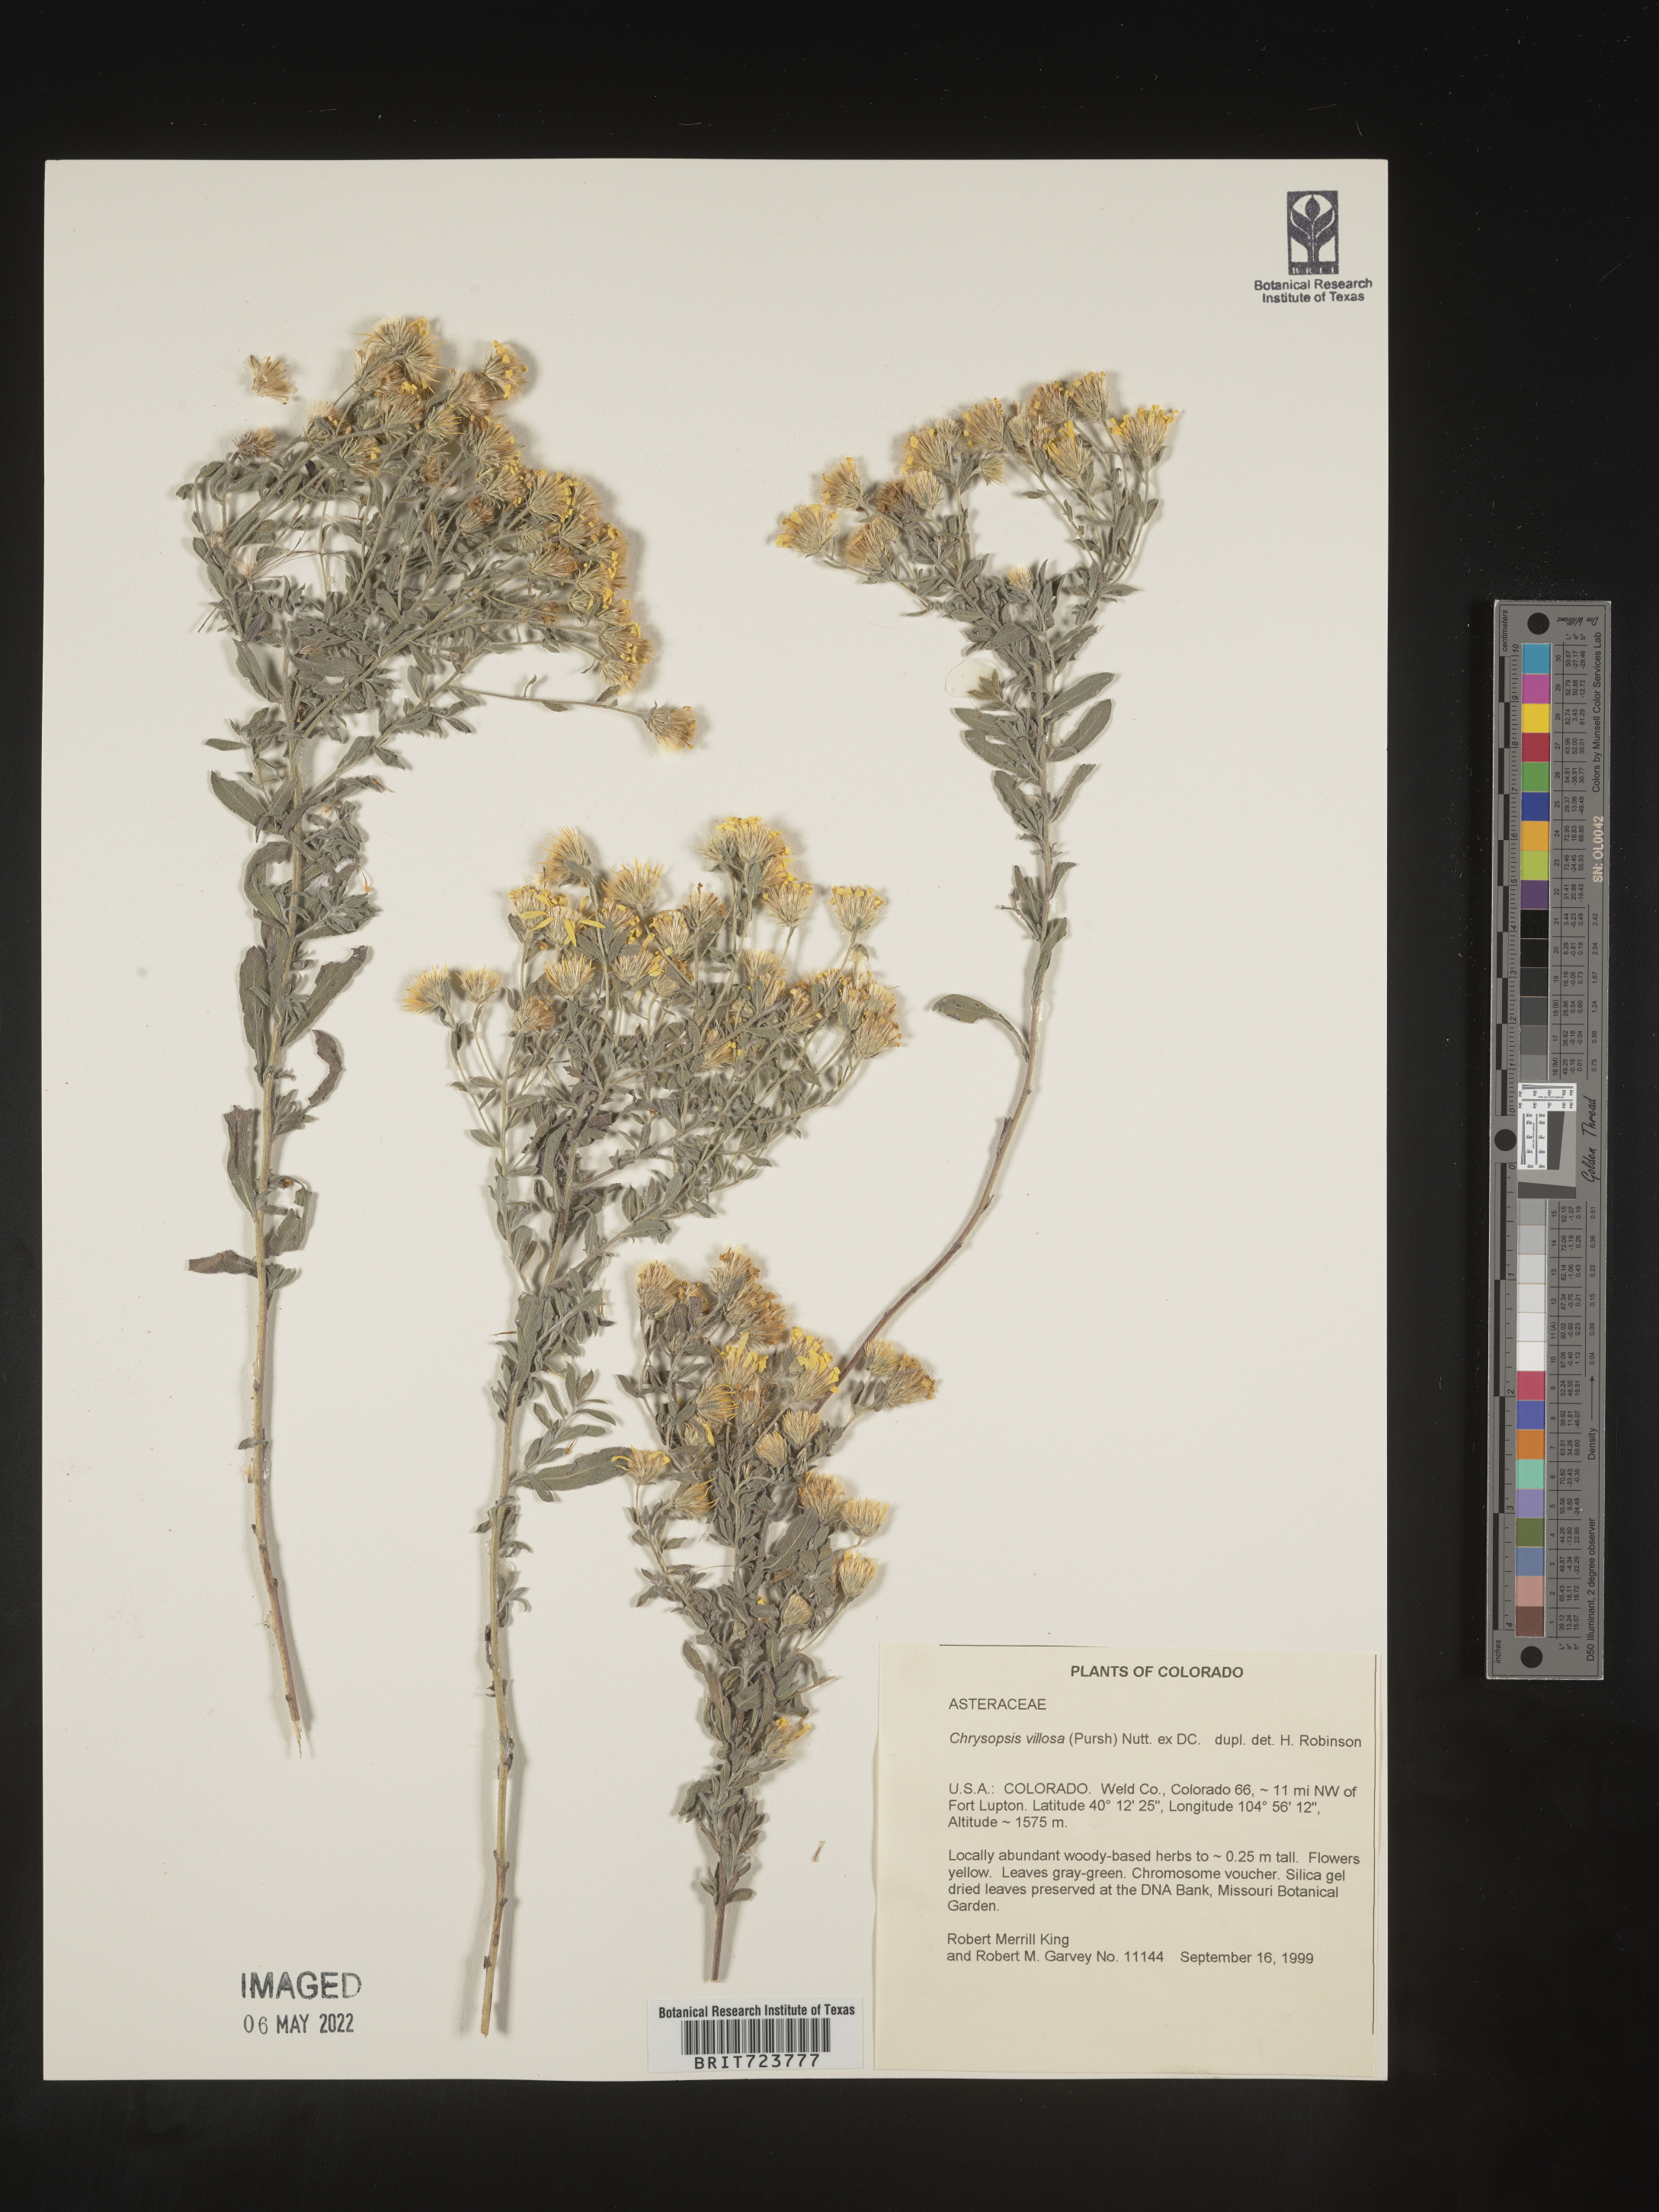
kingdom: Plantae
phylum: Tracheophyta
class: Magnoliopsida
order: Asterales
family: Asteraceae
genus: Heterotheca
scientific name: Heterotheca hirsutissima
